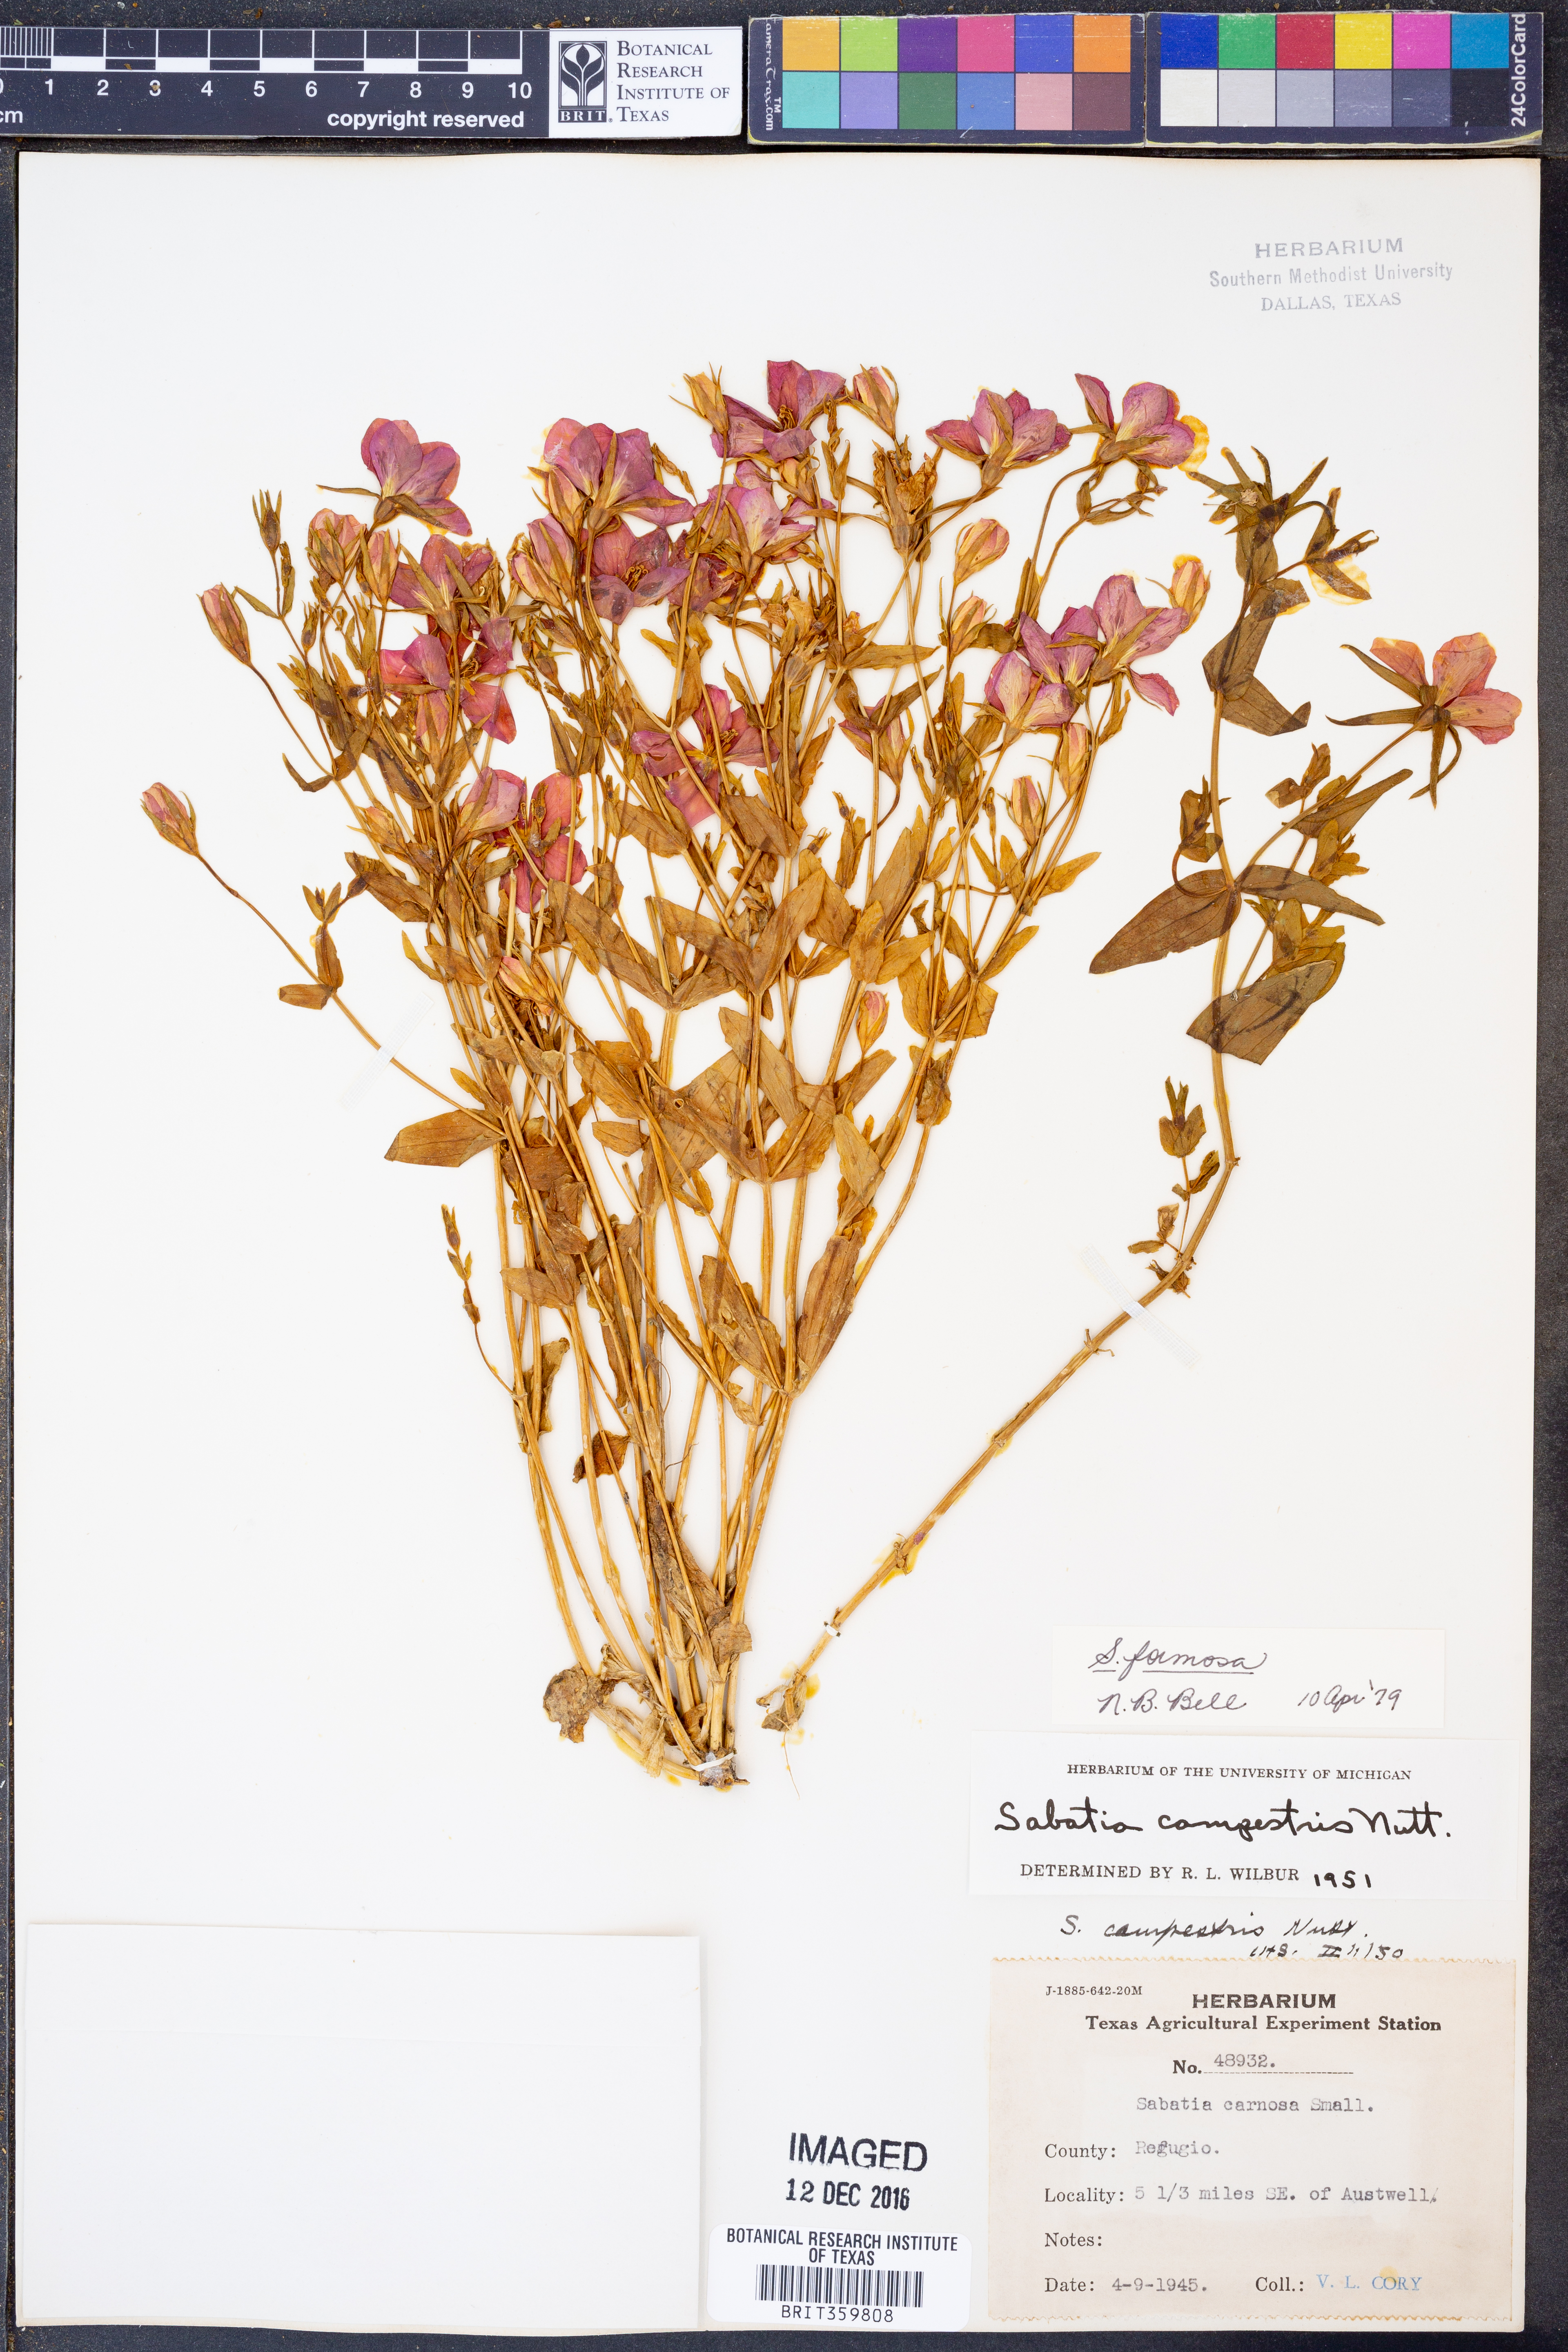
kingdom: Plantae
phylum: Tracheophyta
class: Magnoliopsida
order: Gentianales
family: Gentianaceae
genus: Sabatia
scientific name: Sabatia formosa
